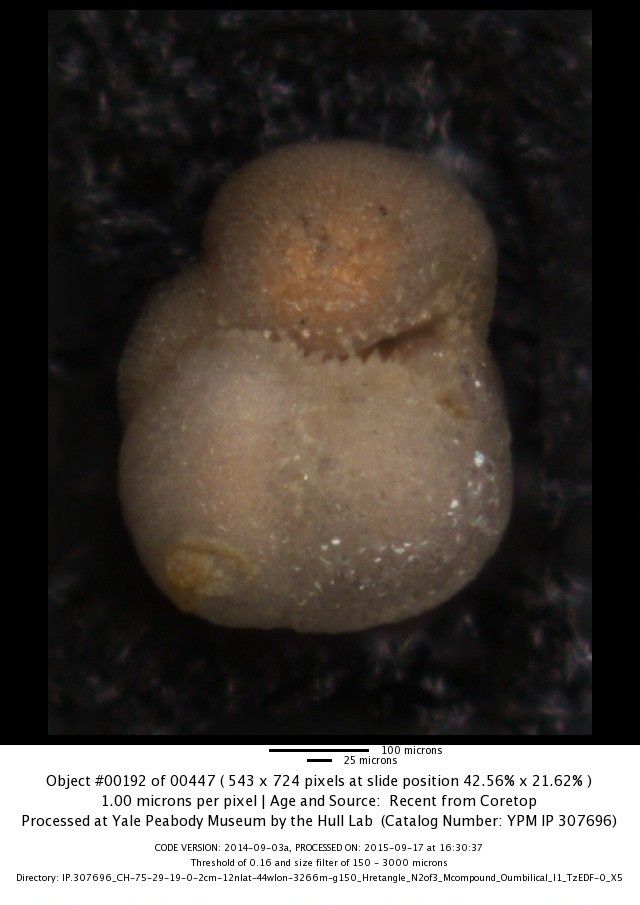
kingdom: Chromista
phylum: Foraminifera
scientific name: Foraminifera
